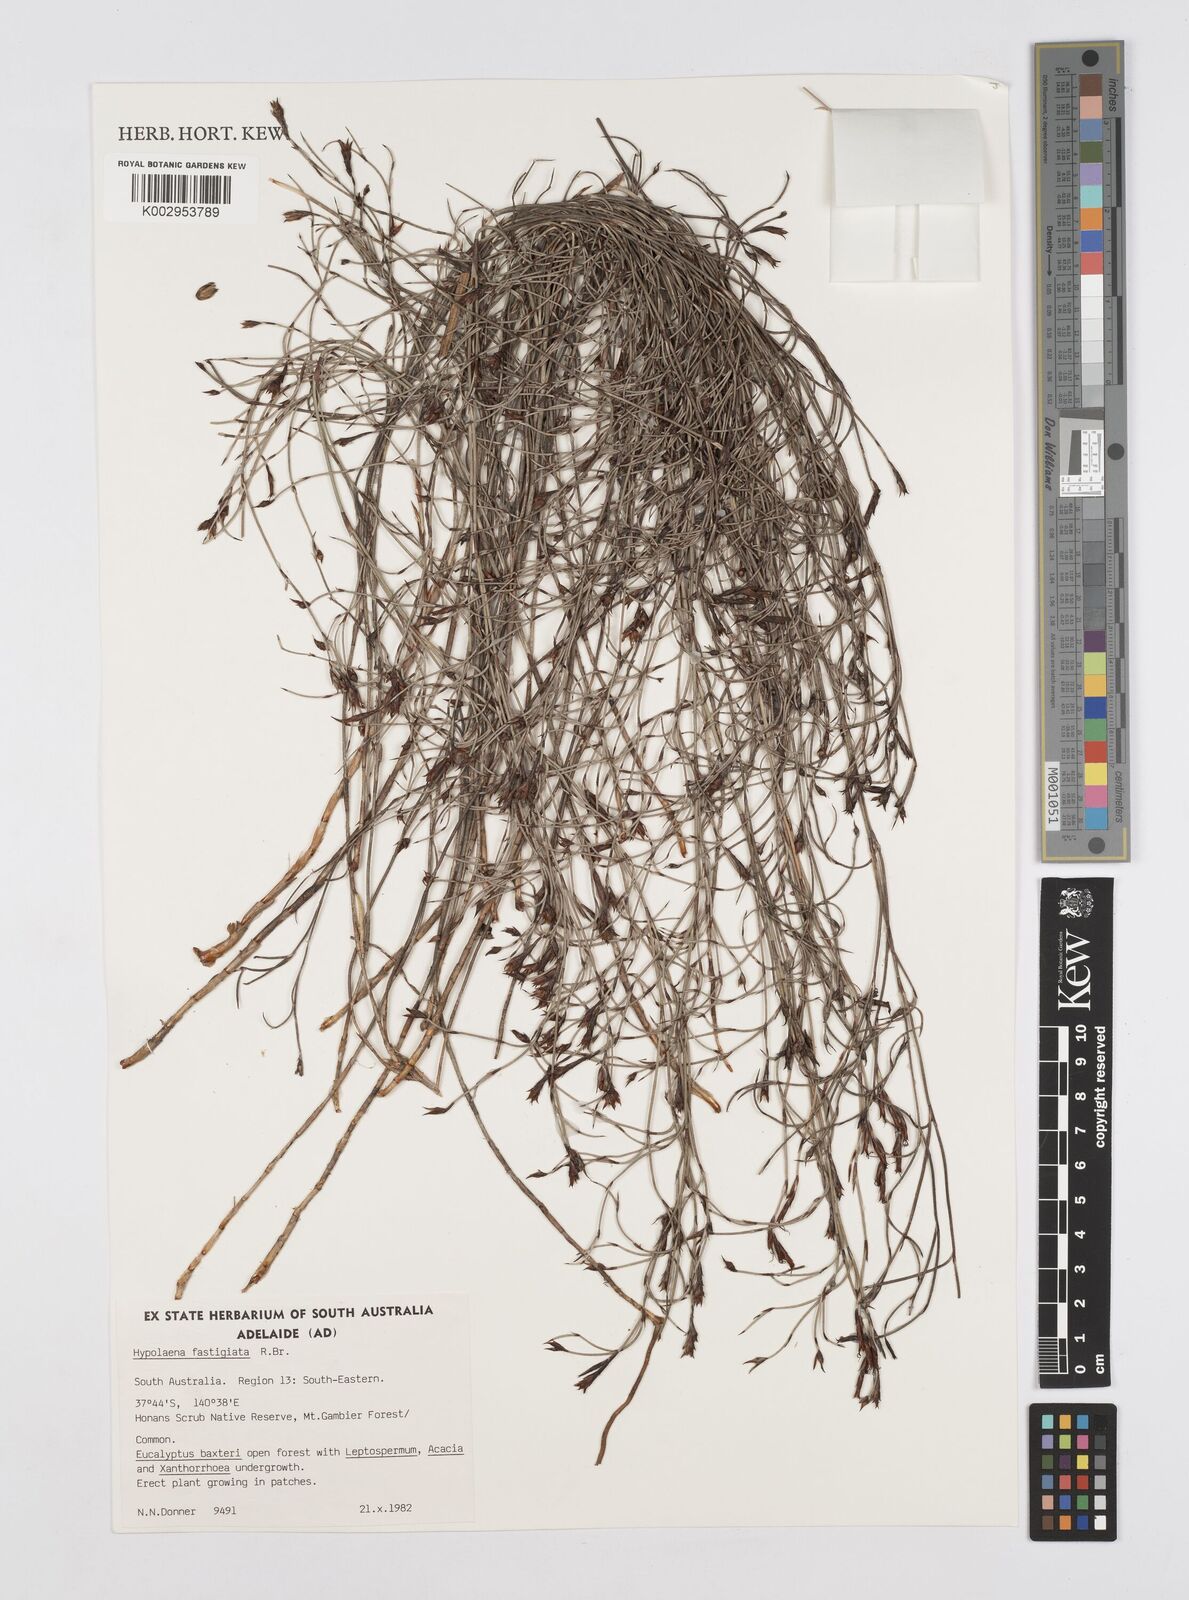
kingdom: Plantae
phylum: Tracheophyta
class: Liliopsida
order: Poales
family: Restionaceae
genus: Hypolaena
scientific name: Hypolaena fastigiata
